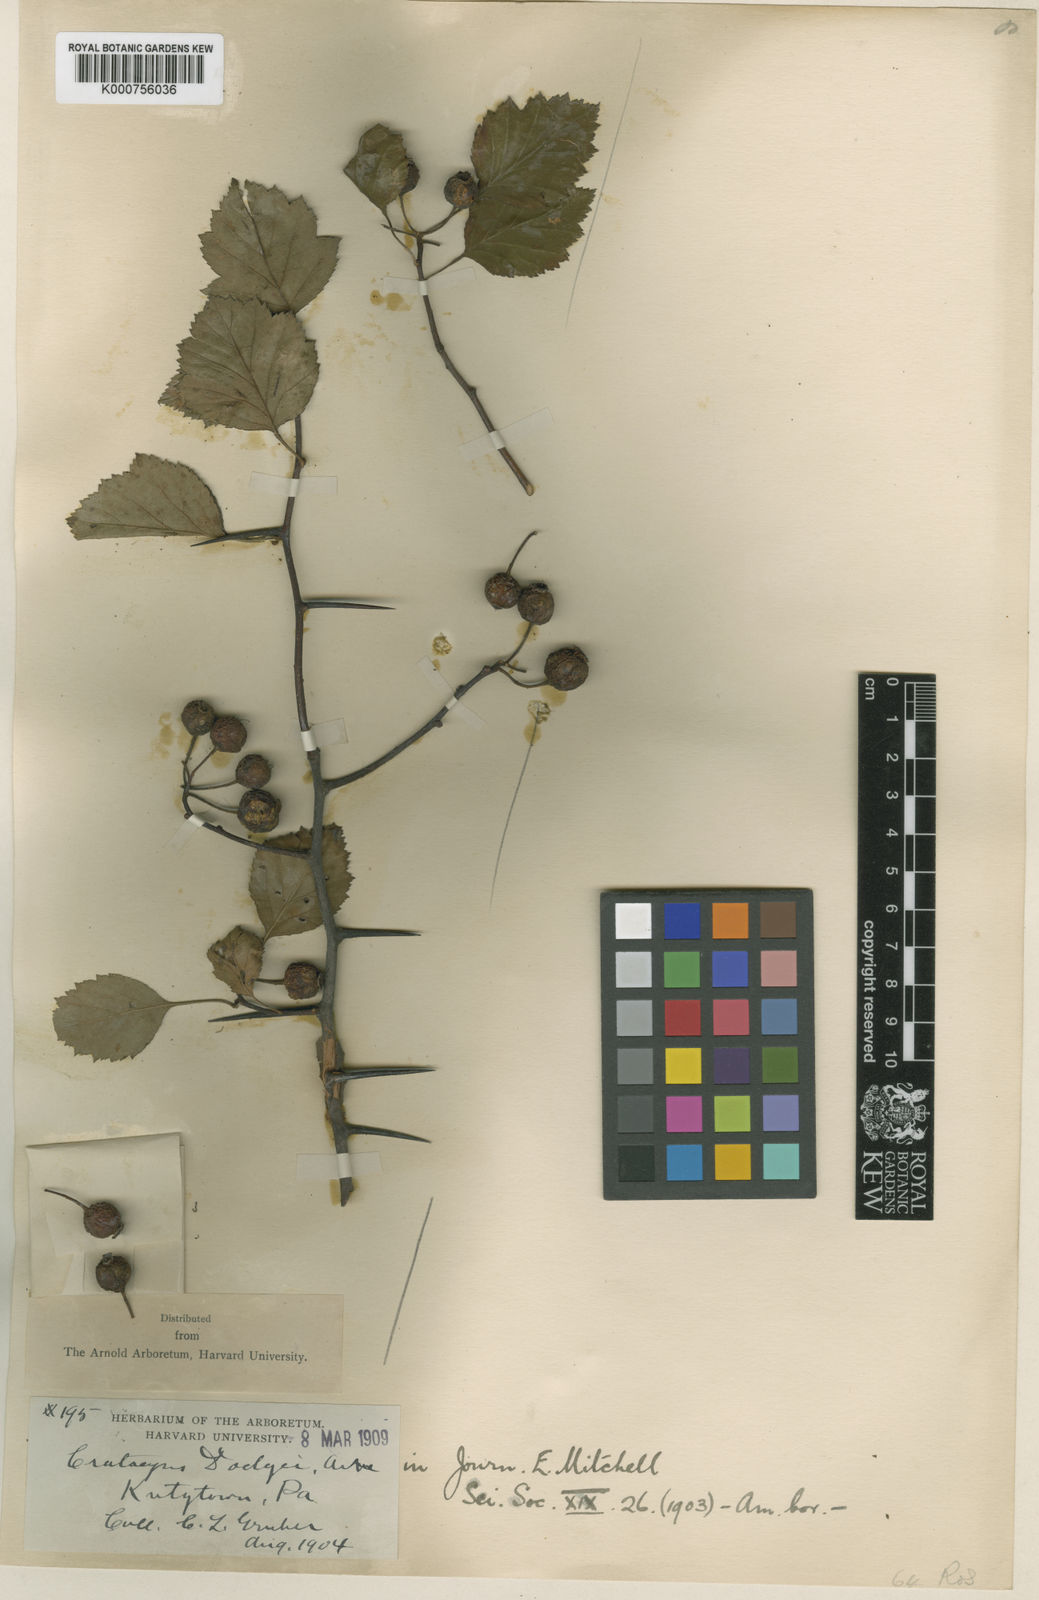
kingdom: Plantae
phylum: Tracheophyta
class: Magnoliopsida
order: Rosales
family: Rosaceae
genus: Crataegus
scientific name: Crataegus dodgei
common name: Dodge's hawthorn
